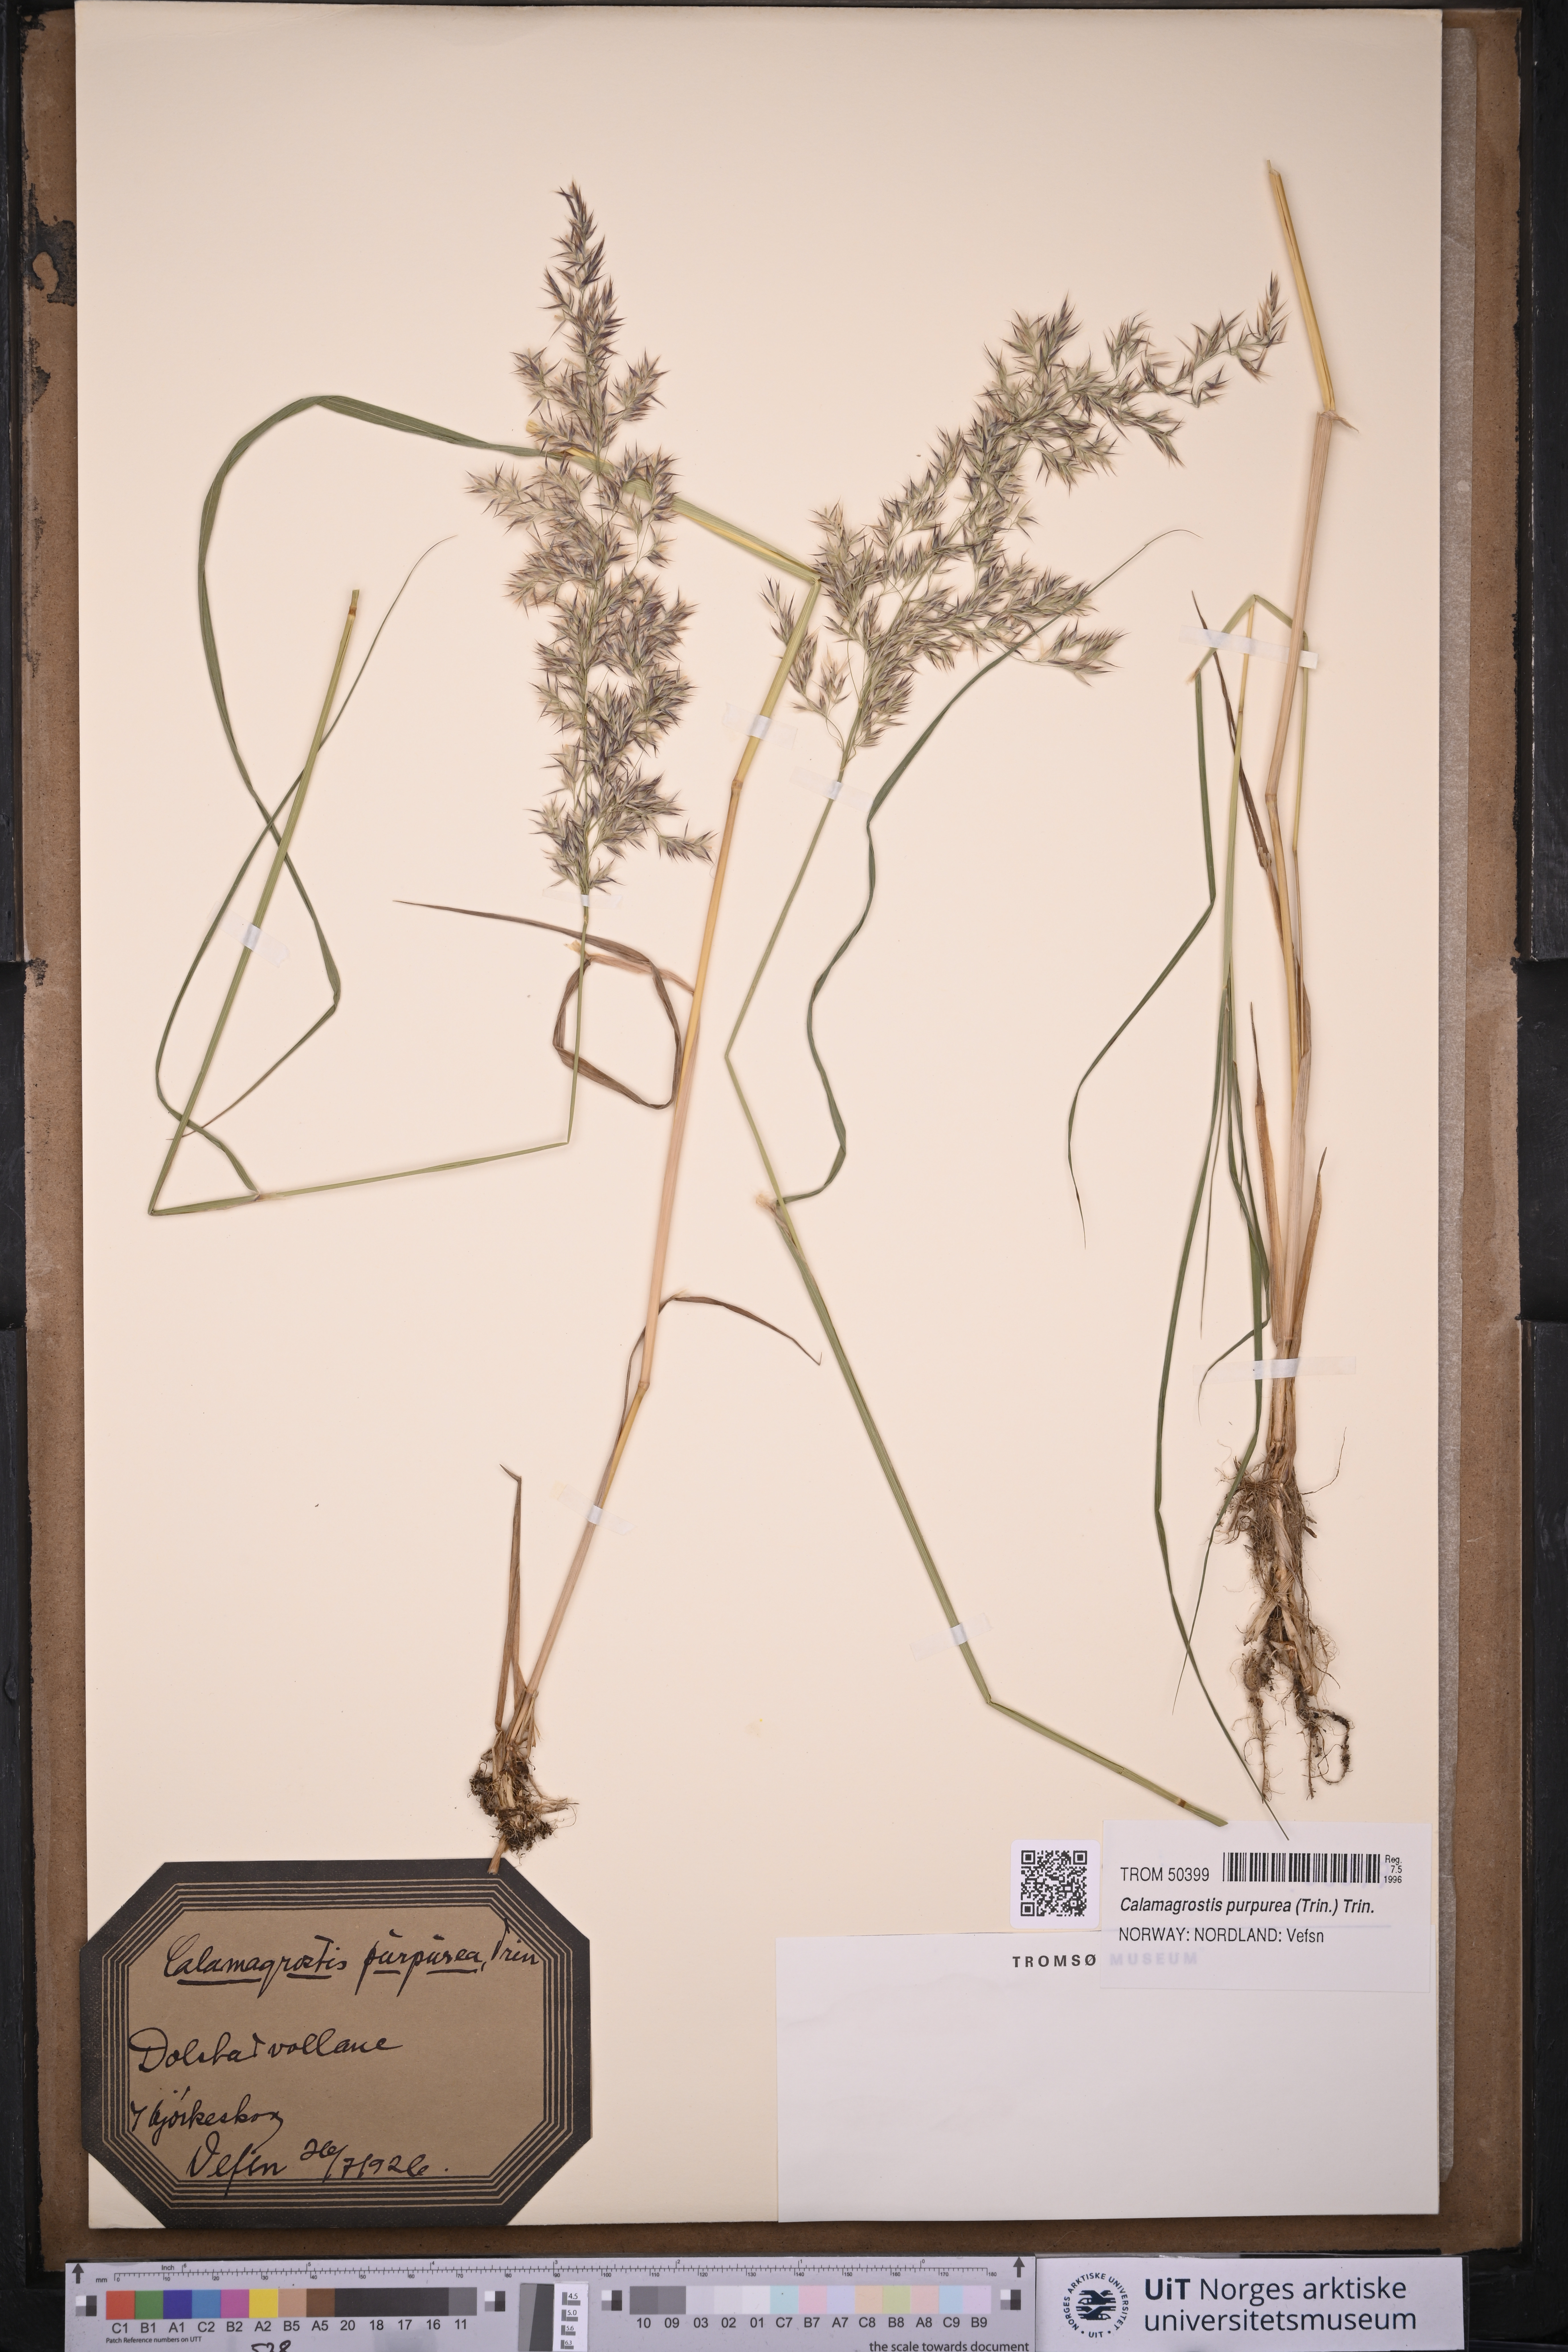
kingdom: Plantae
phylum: Tracheophyta
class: Liliopsida
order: Poales
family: Poaceae
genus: Calamagrostis
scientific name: Calamagrostis purpurea
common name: Scandinavian small-reed
